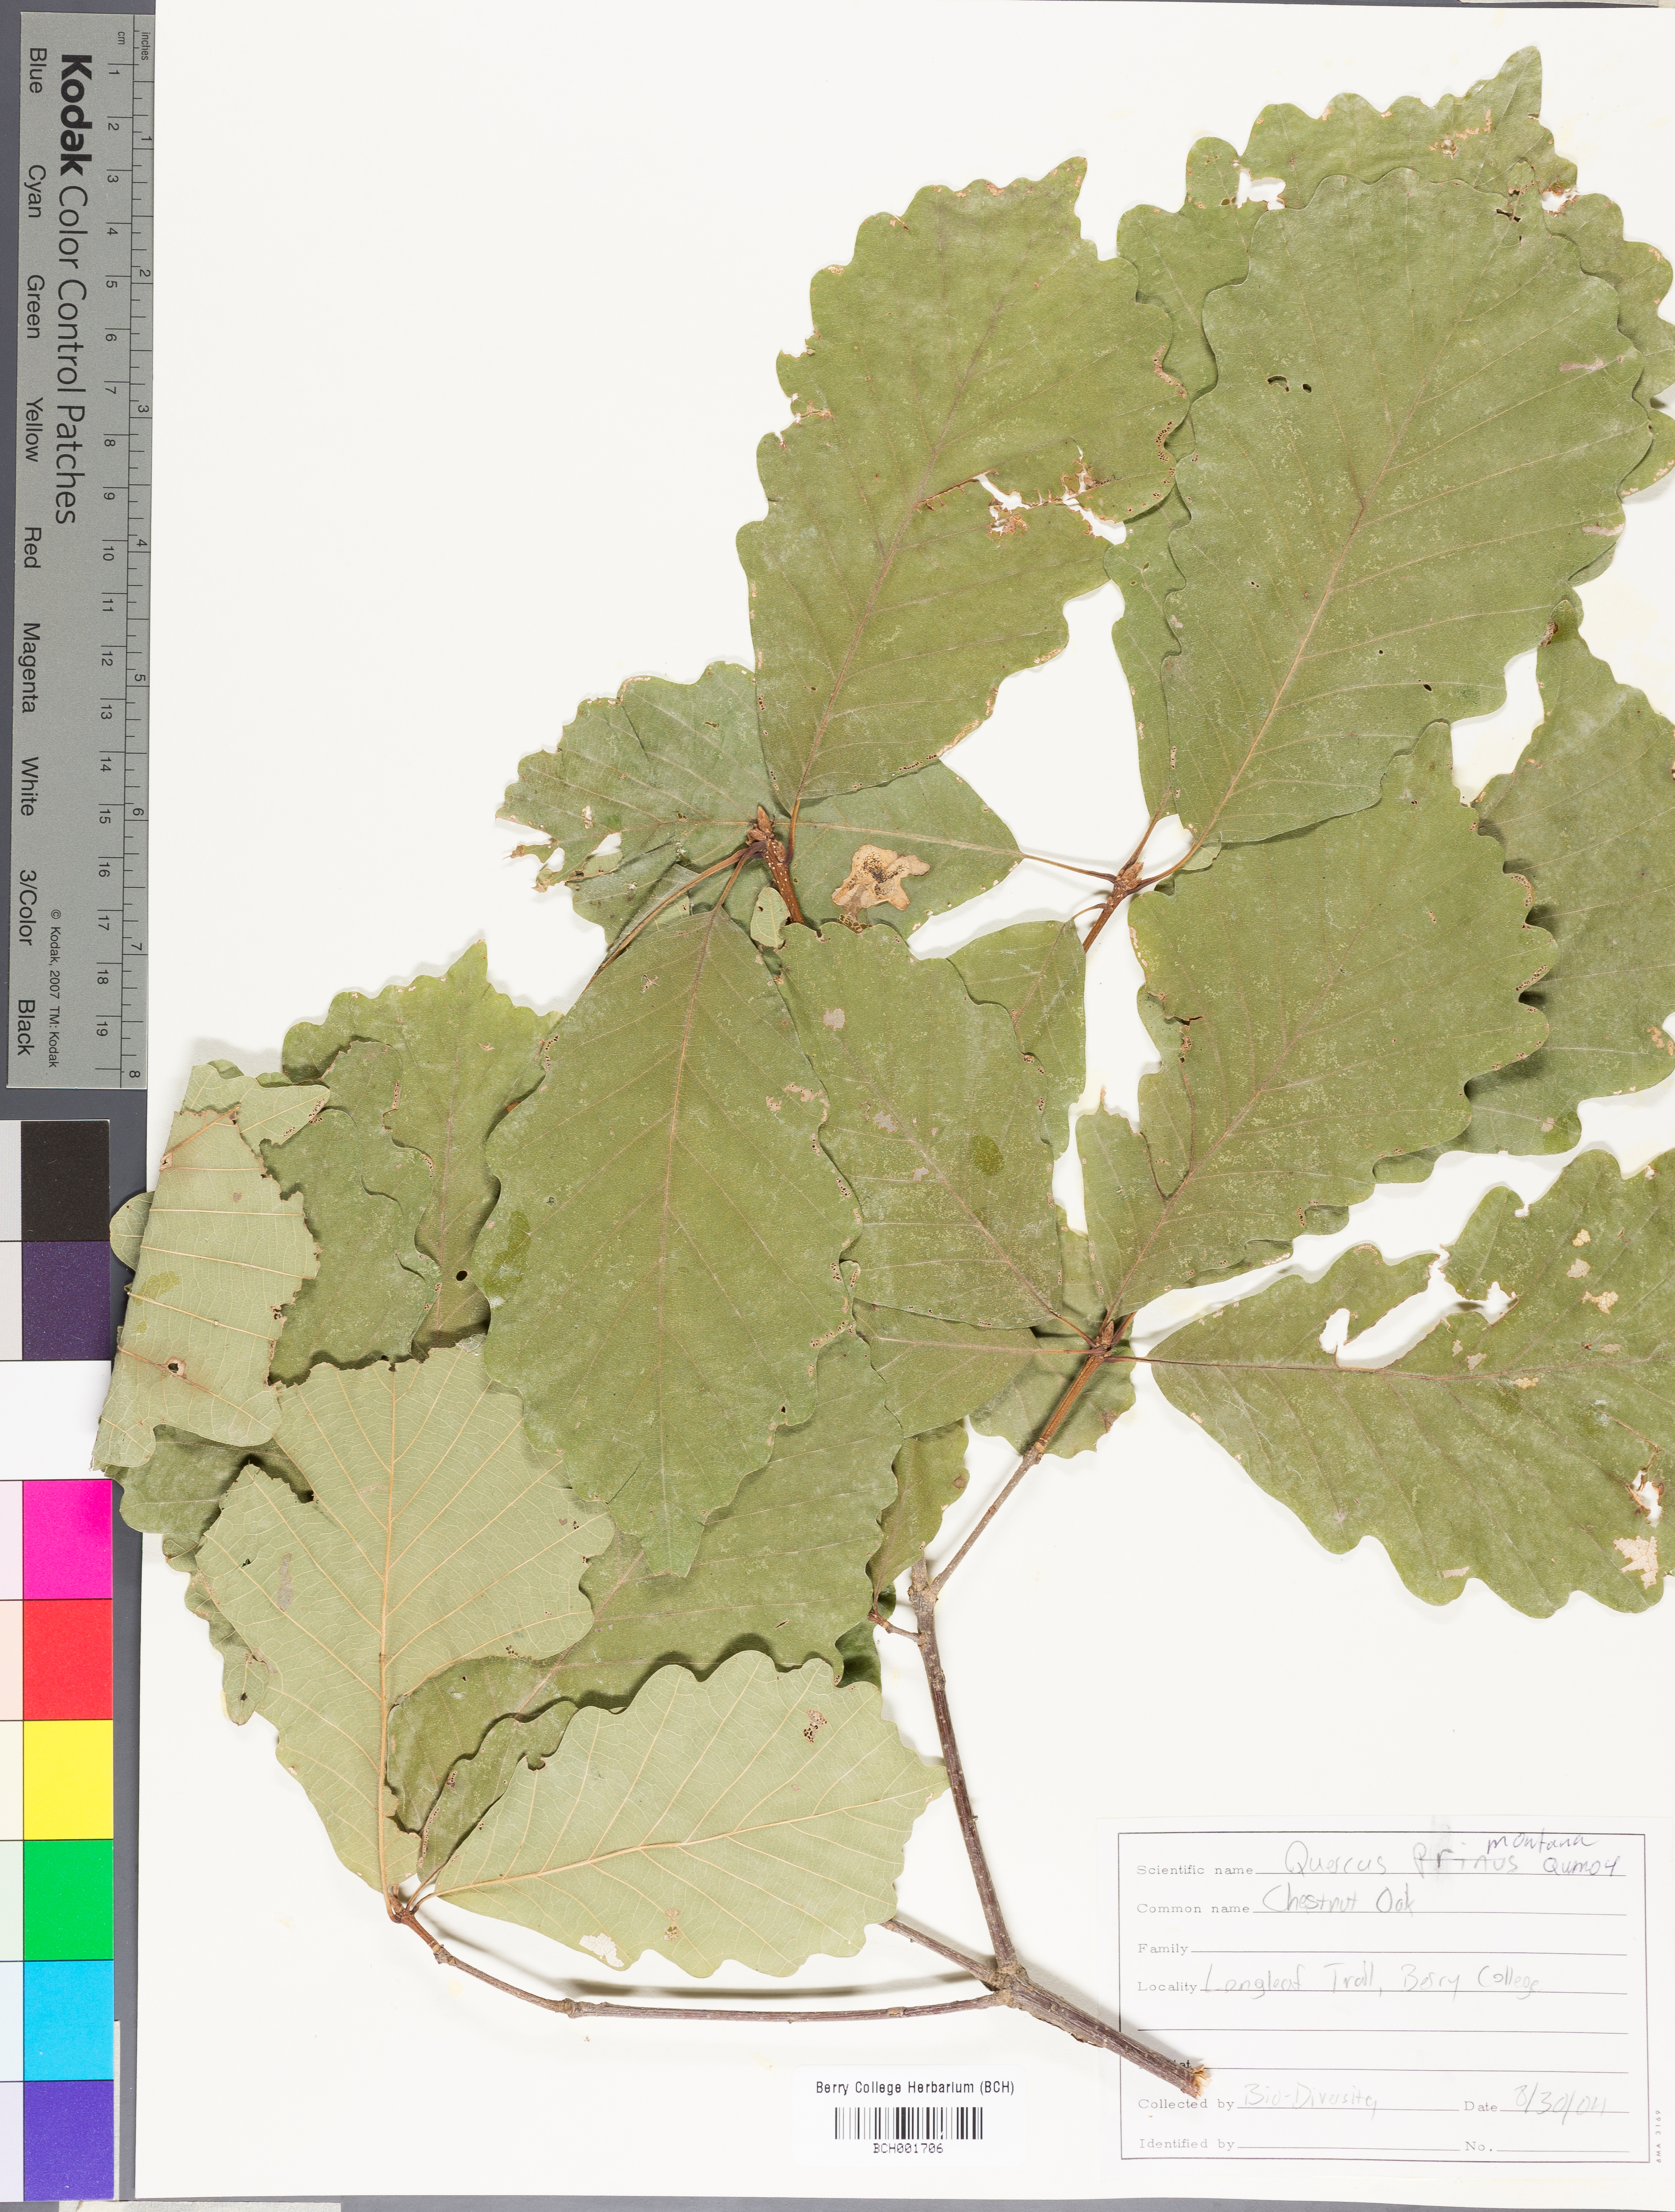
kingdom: Plantae
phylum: Tracheophyta
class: Magnoliopsida
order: Fagales
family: Fagaceae
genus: Quercus
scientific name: Quercus montana
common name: Chestnut oak
